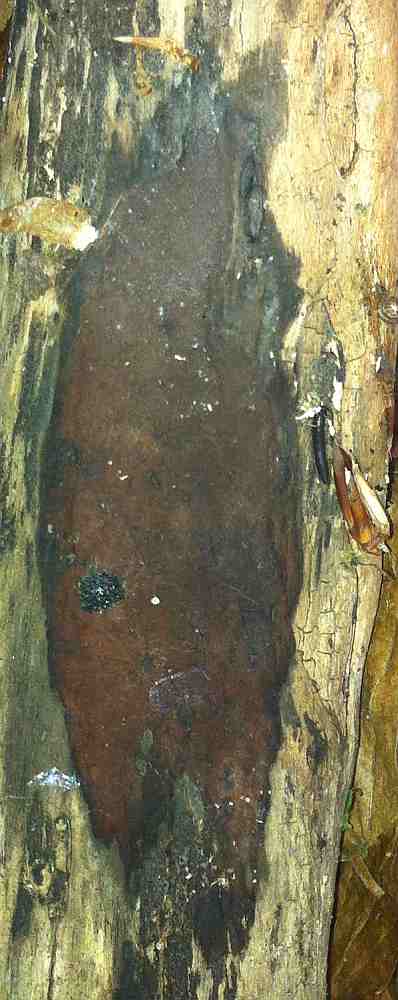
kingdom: Fungi
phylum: Ascomycota
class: Sordariomycetes
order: Xylariales
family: Hypoxylaceae
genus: Hypoxylon
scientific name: Hypoxylon macrocarpum
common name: skorpe-kulbær
